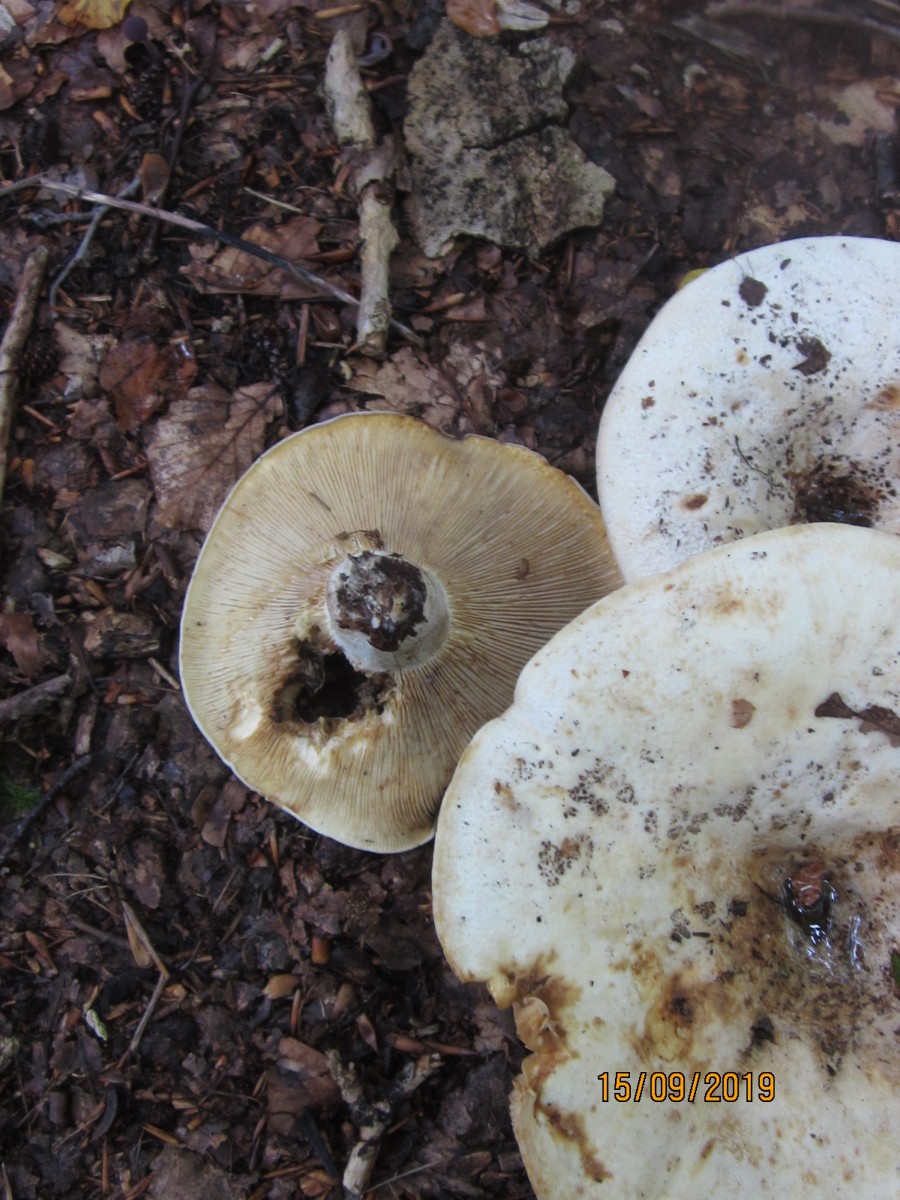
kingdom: Fungi
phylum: Basidiomycota
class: Agaricomycetes
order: Russulales
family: Russulaceae
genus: Lactifluus
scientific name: Lactifluus vellereus
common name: hvidfiltet mælkehat
